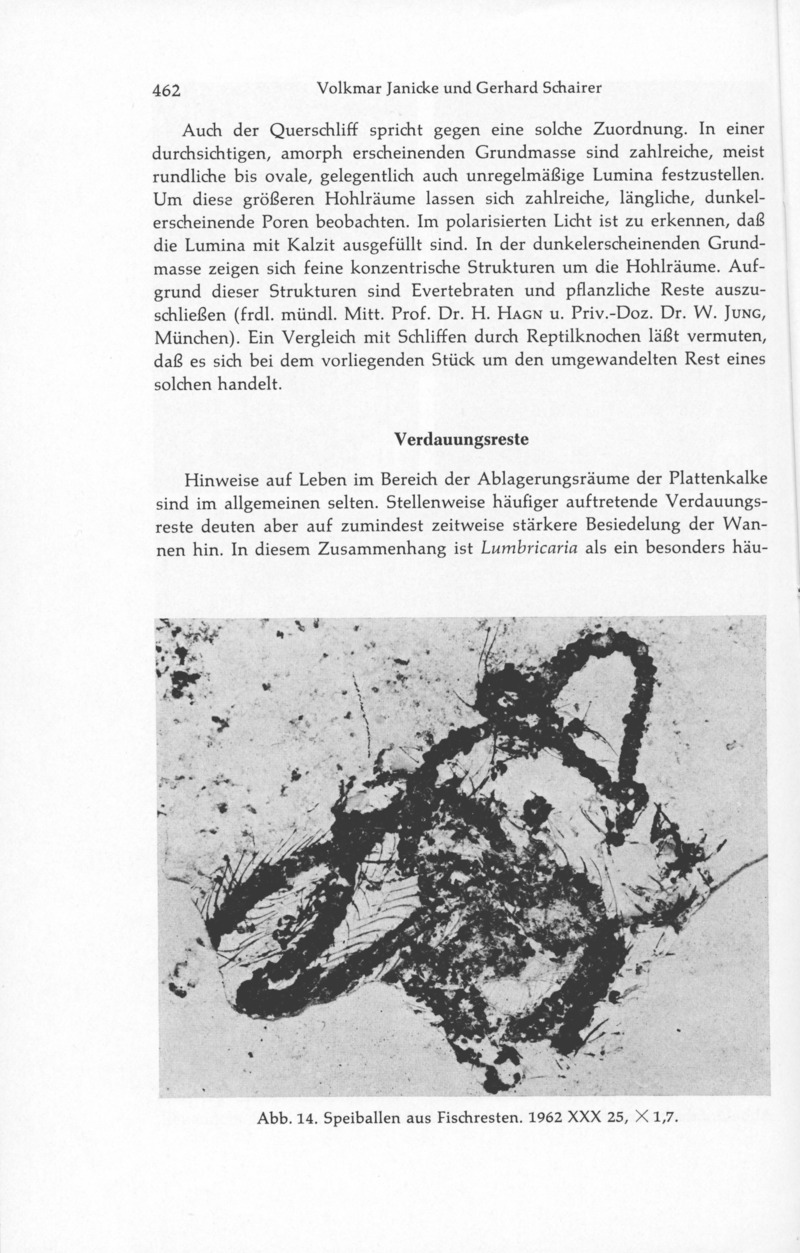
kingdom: Animalia
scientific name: Animalia
